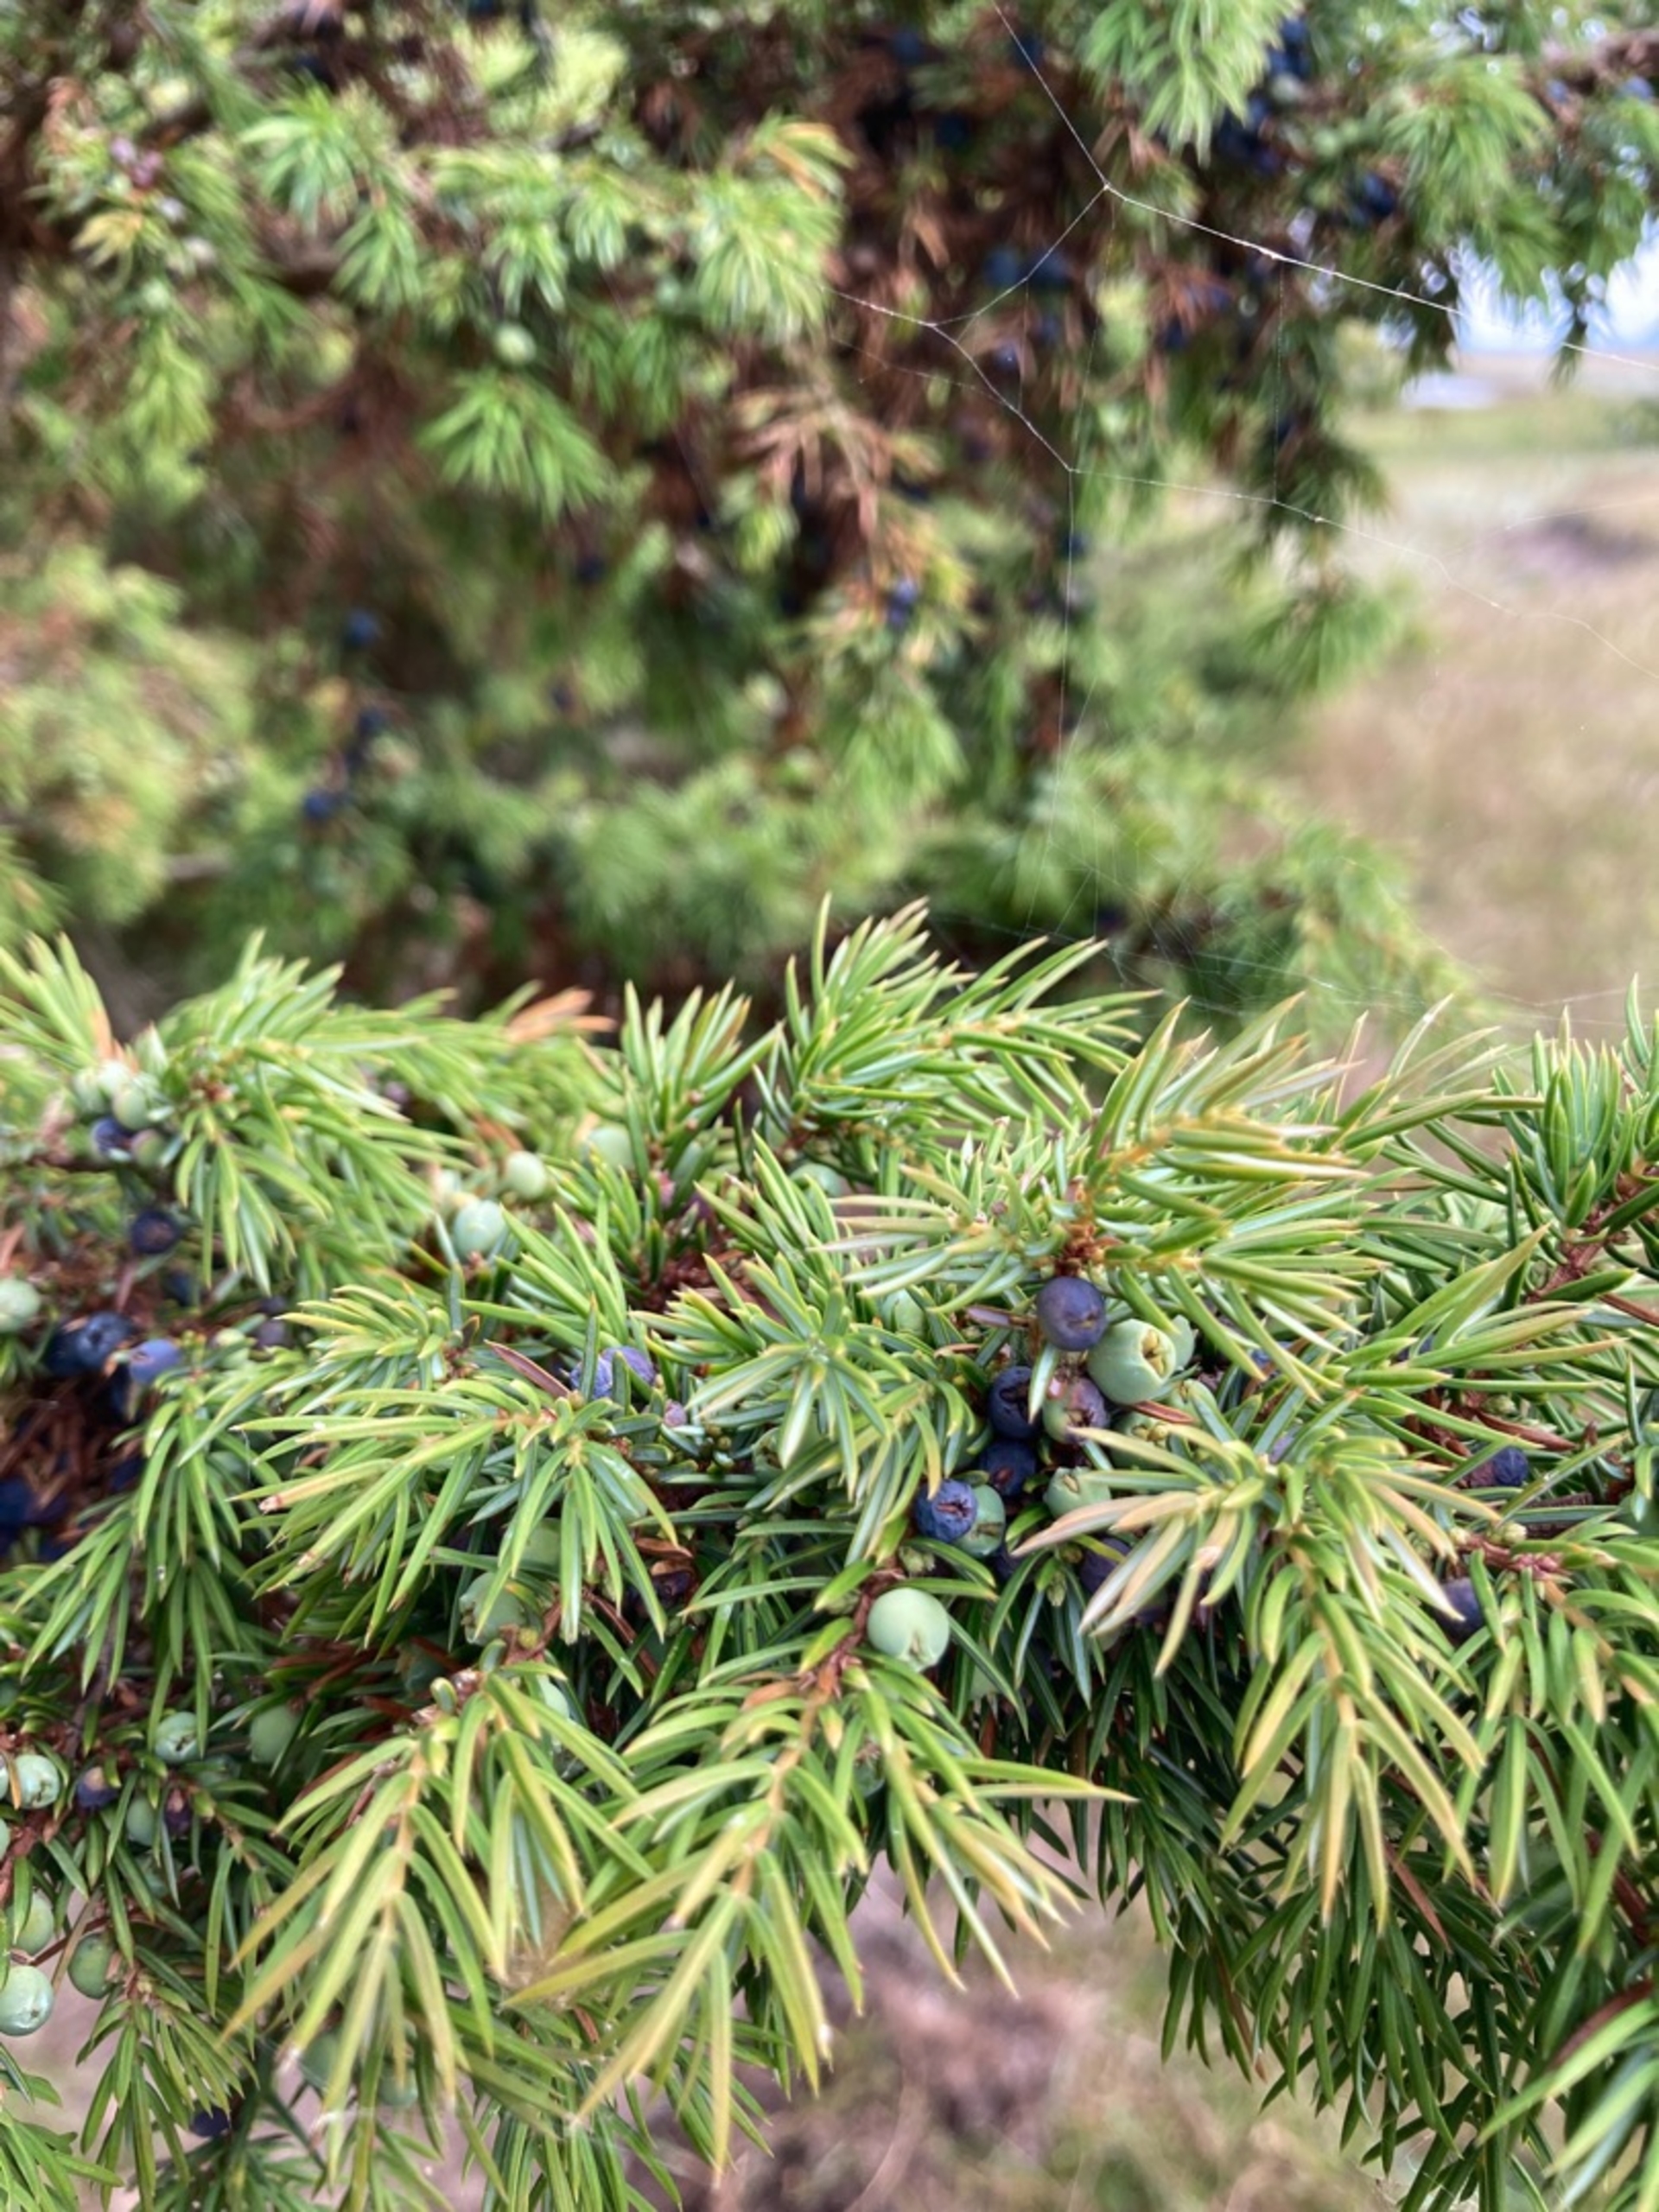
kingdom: Plantae
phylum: Tracheophyta
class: Pinopsida
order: Pinales
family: Cupressaceae
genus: Juniperus
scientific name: Juniperus communis
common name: Almindelig ene
